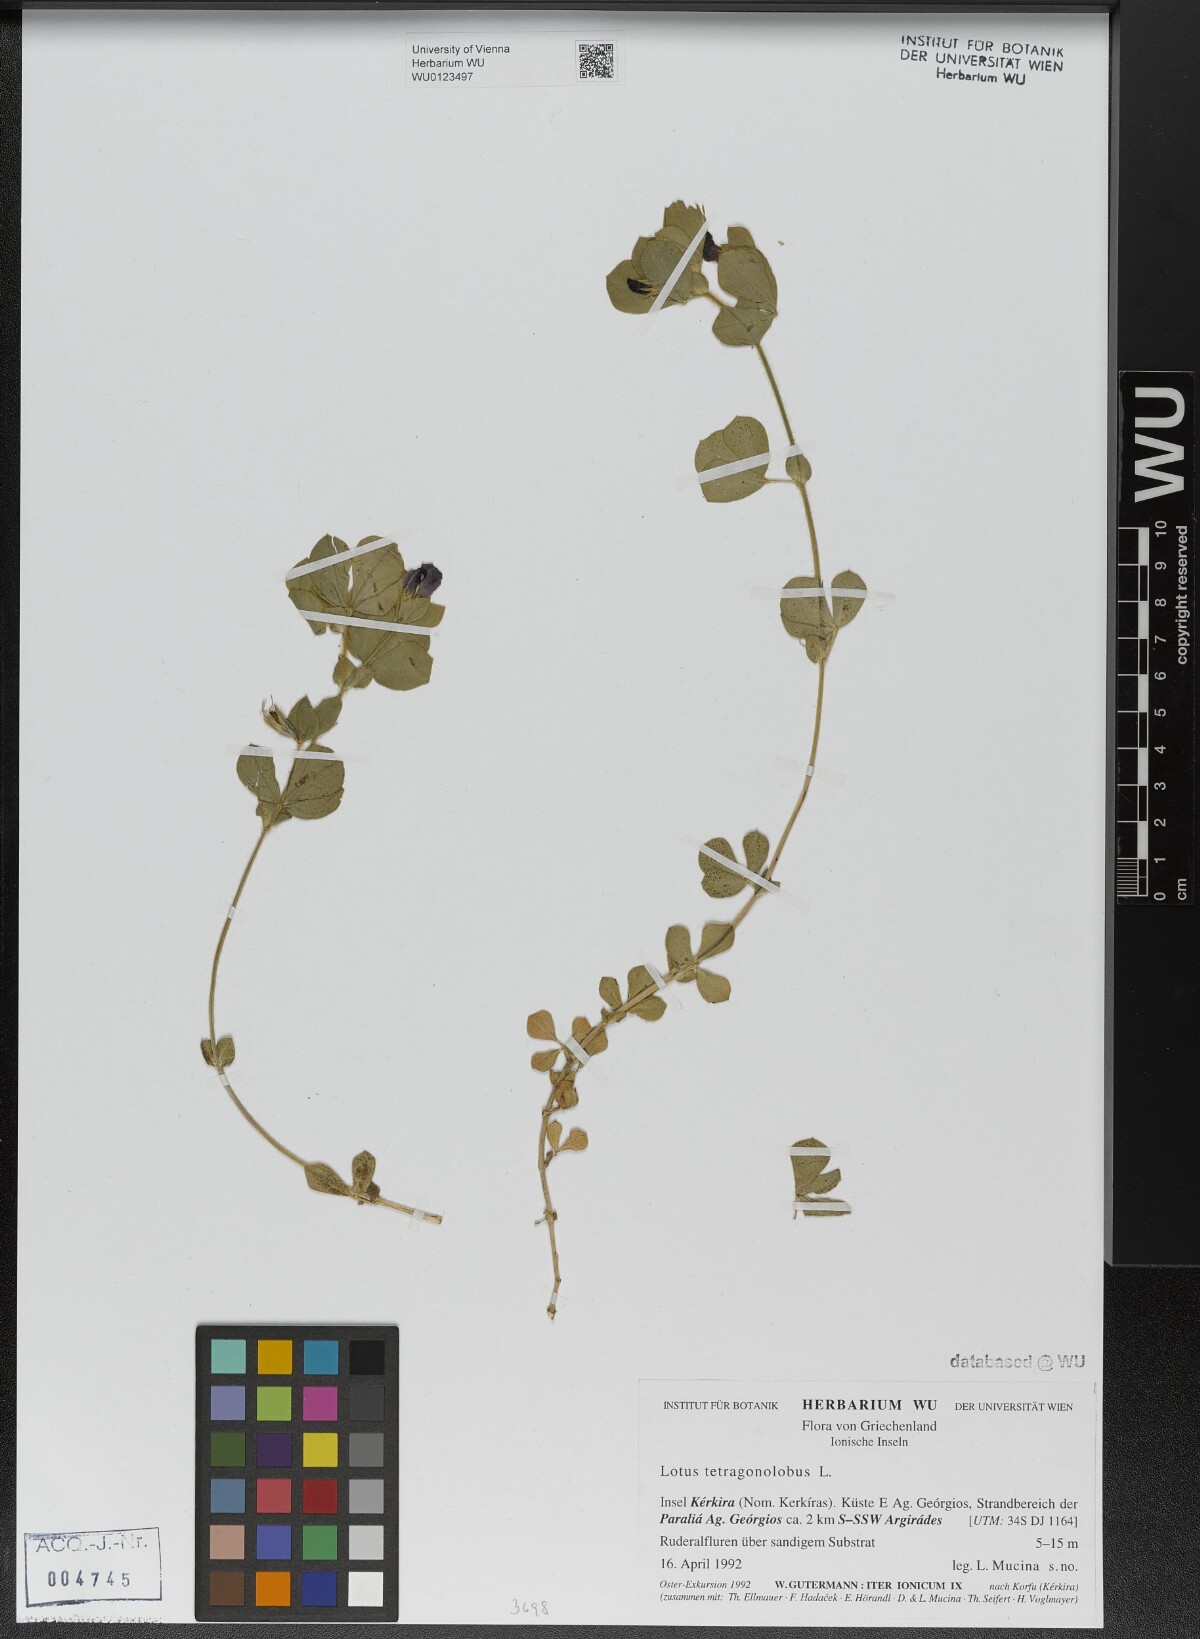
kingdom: Plantae
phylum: Tracheophyta
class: Magnoliopsida
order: Fabales
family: Fabaceae
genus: Lotus
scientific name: Lotus tetragonolobus
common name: Asparagus-pea
